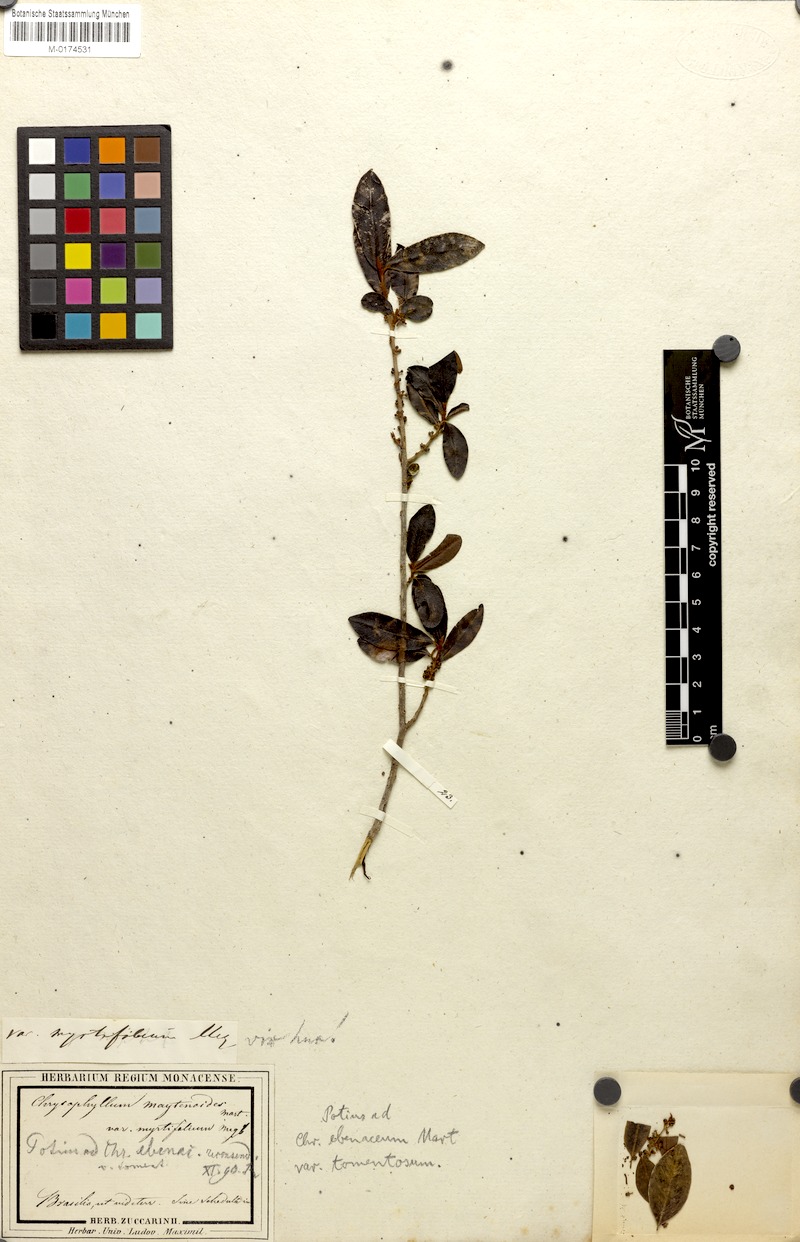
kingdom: Plantae
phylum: Tracheophyta
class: Magnoliopsida
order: Ericales
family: Sapotaceae
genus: Chrysophyllum
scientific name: Chrysophyllum marginatum
